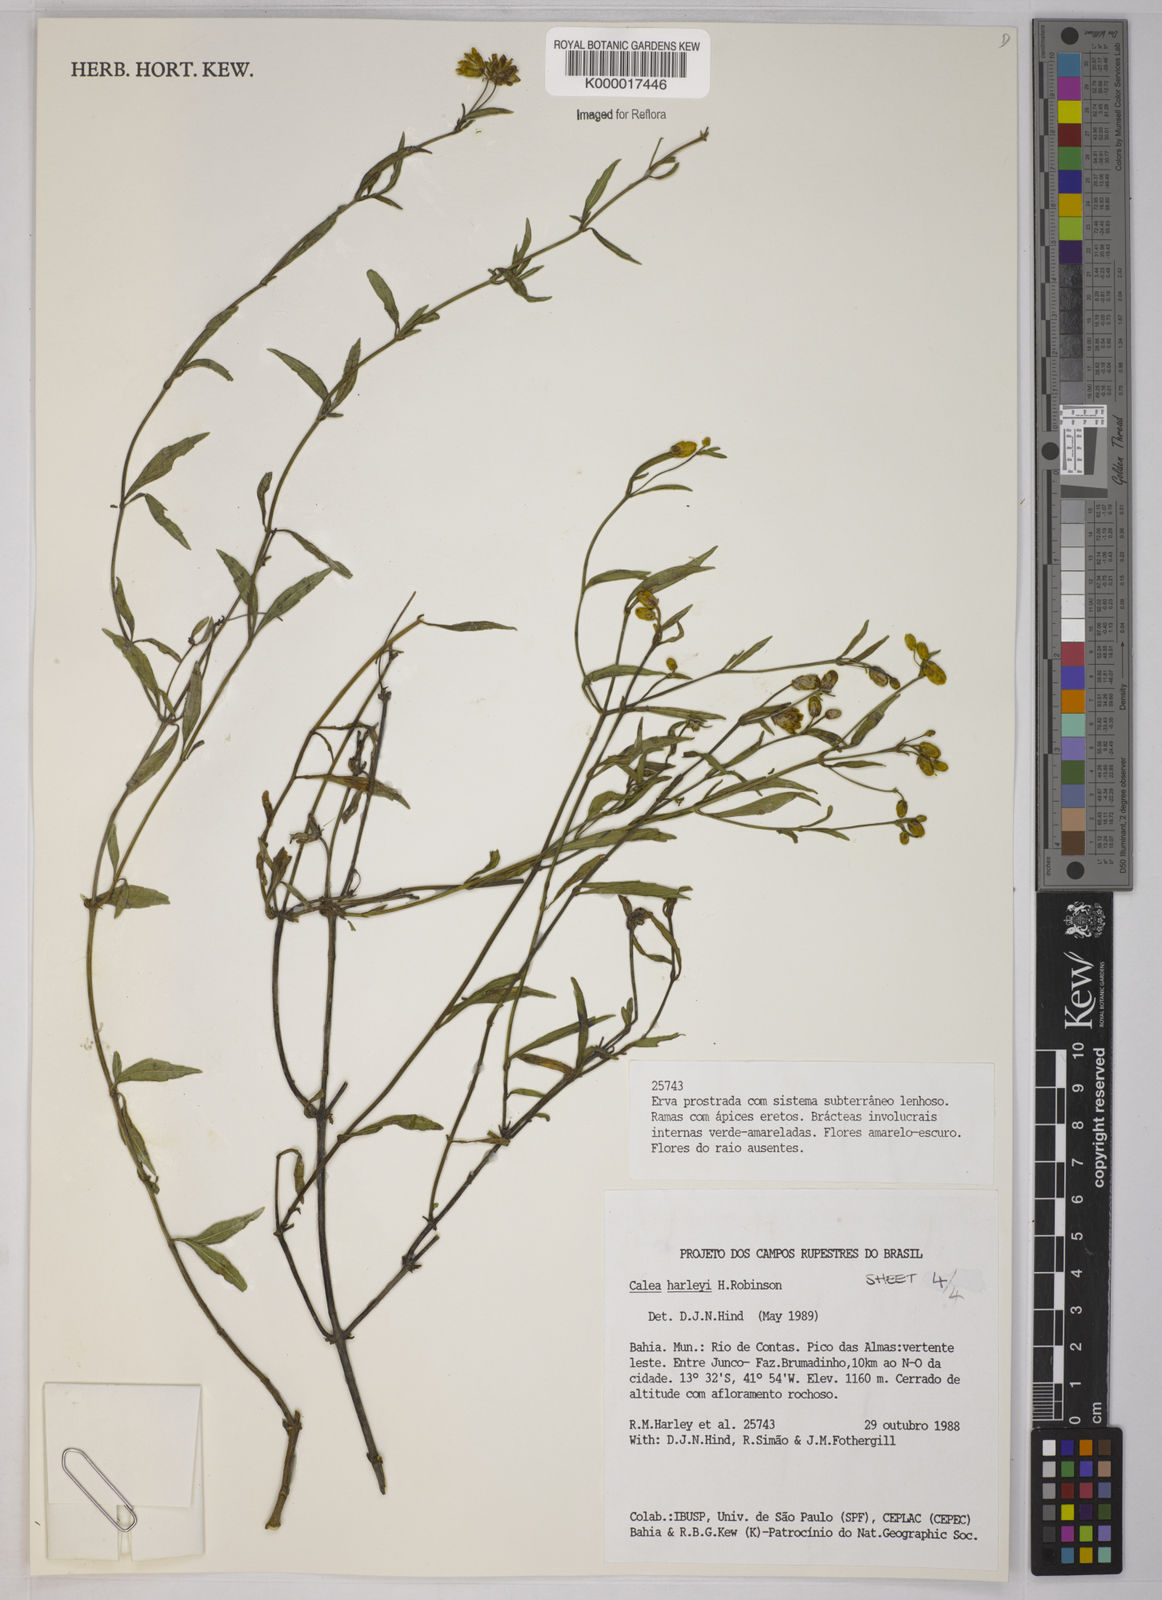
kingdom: Plantae
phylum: Tracheophyta
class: Magnoliopsida
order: Asterales
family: Asteraceae
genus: Calea
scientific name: Calea harleyi
